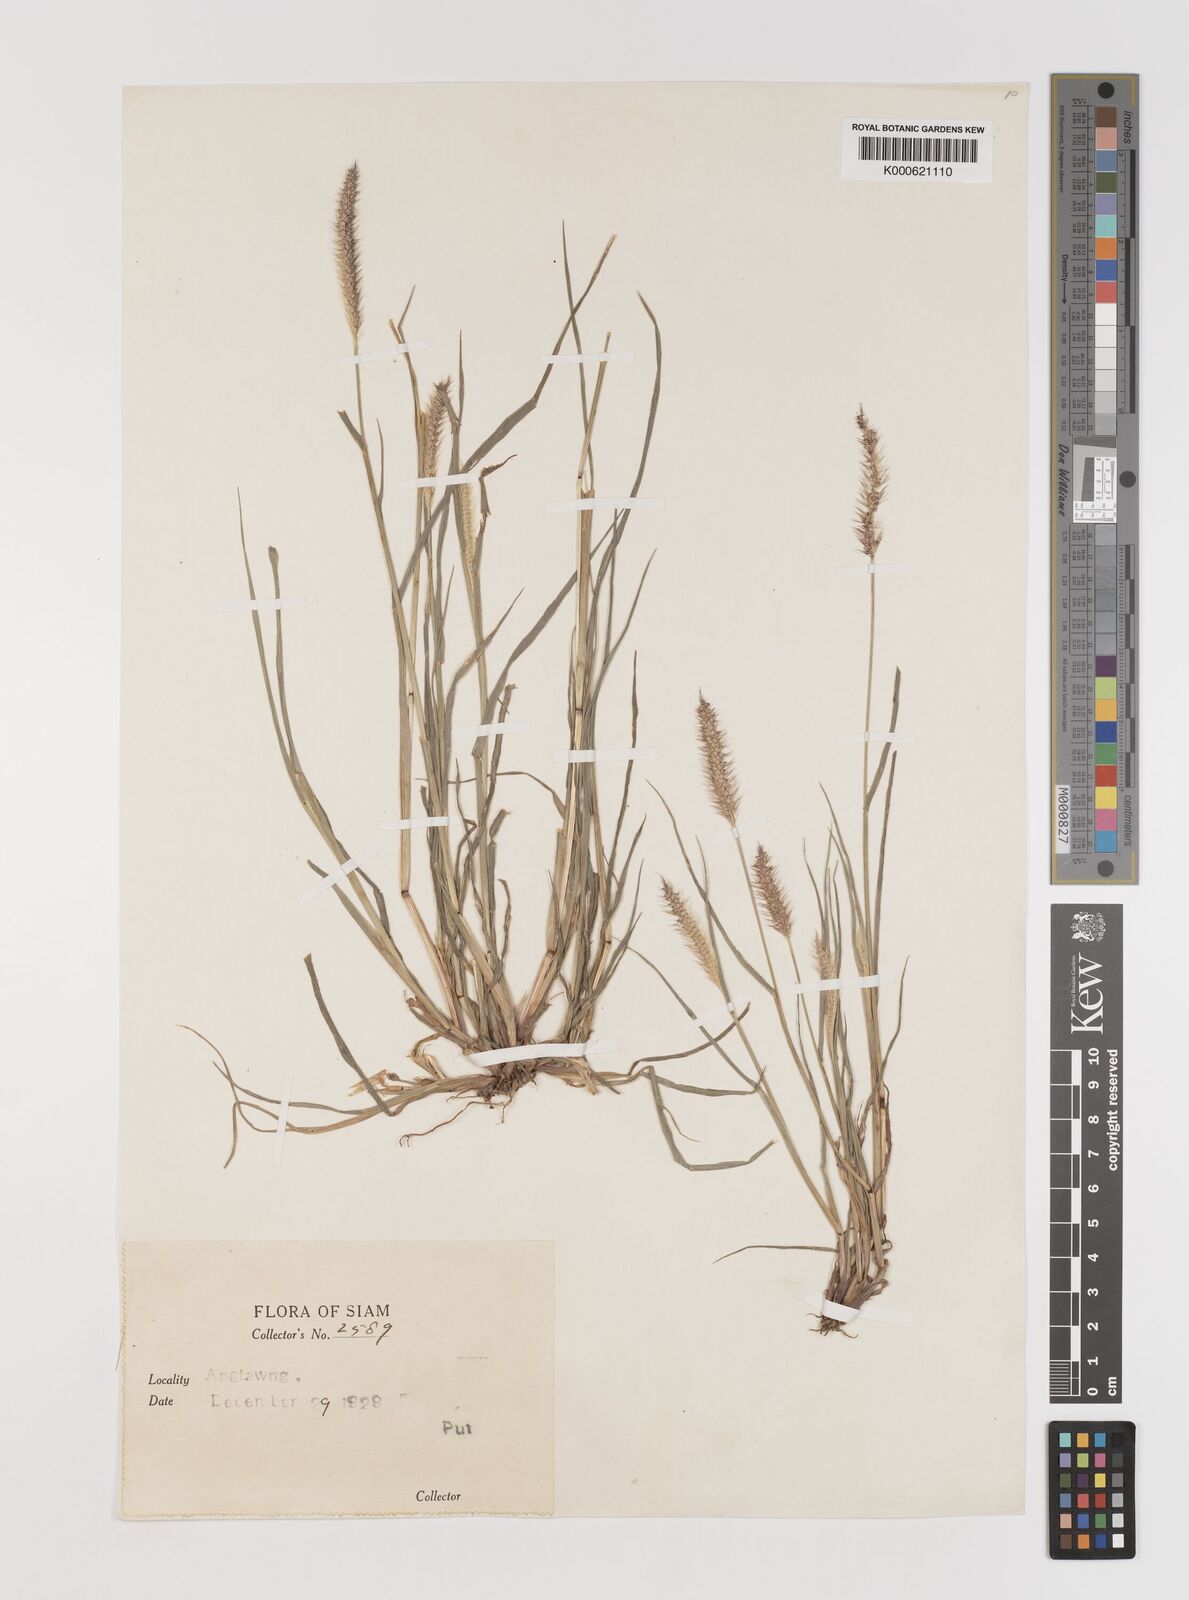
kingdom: Plantae
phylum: Tracheophyta
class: Liliopsida
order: Poales
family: Poaceae
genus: Setaria
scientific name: Setaria pumila
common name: Yellow bristle-grass
